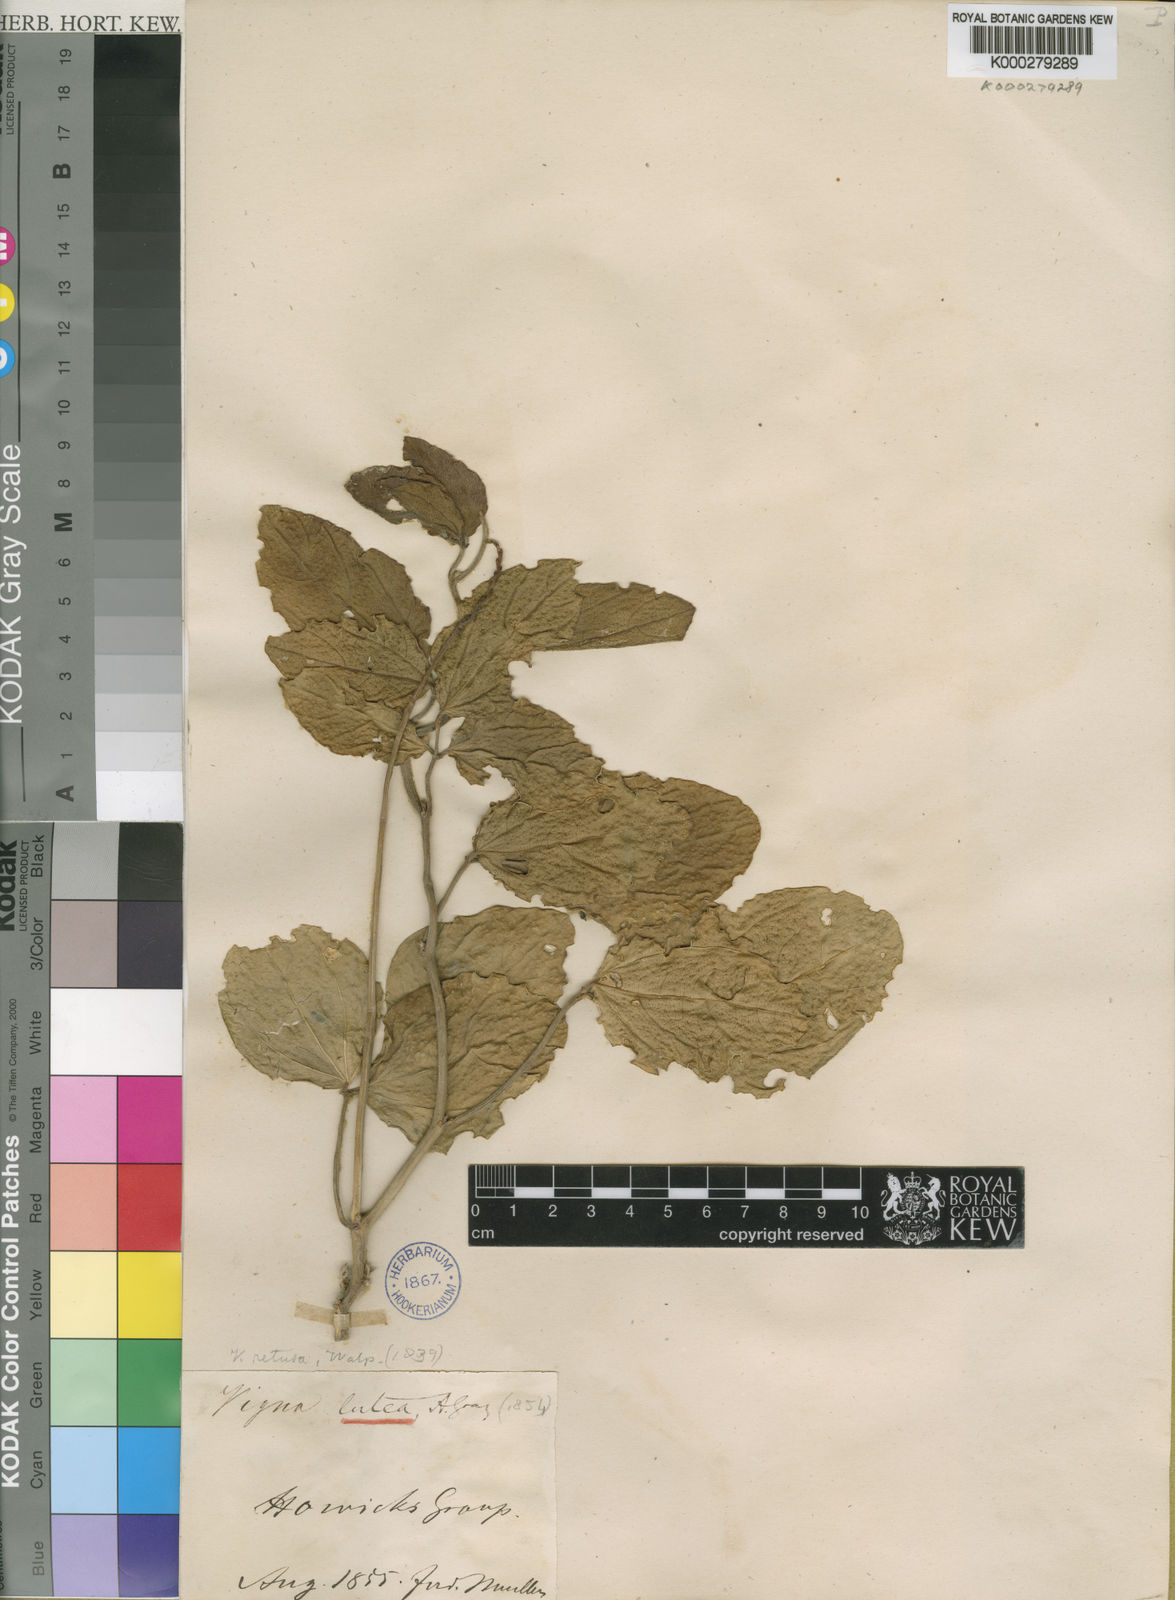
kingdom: Plantae
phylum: Tracheophyta
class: Magnoliopsida
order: Fabales
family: Fabaceae
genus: Vigna
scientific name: Vigna marina
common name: Dune-bean
